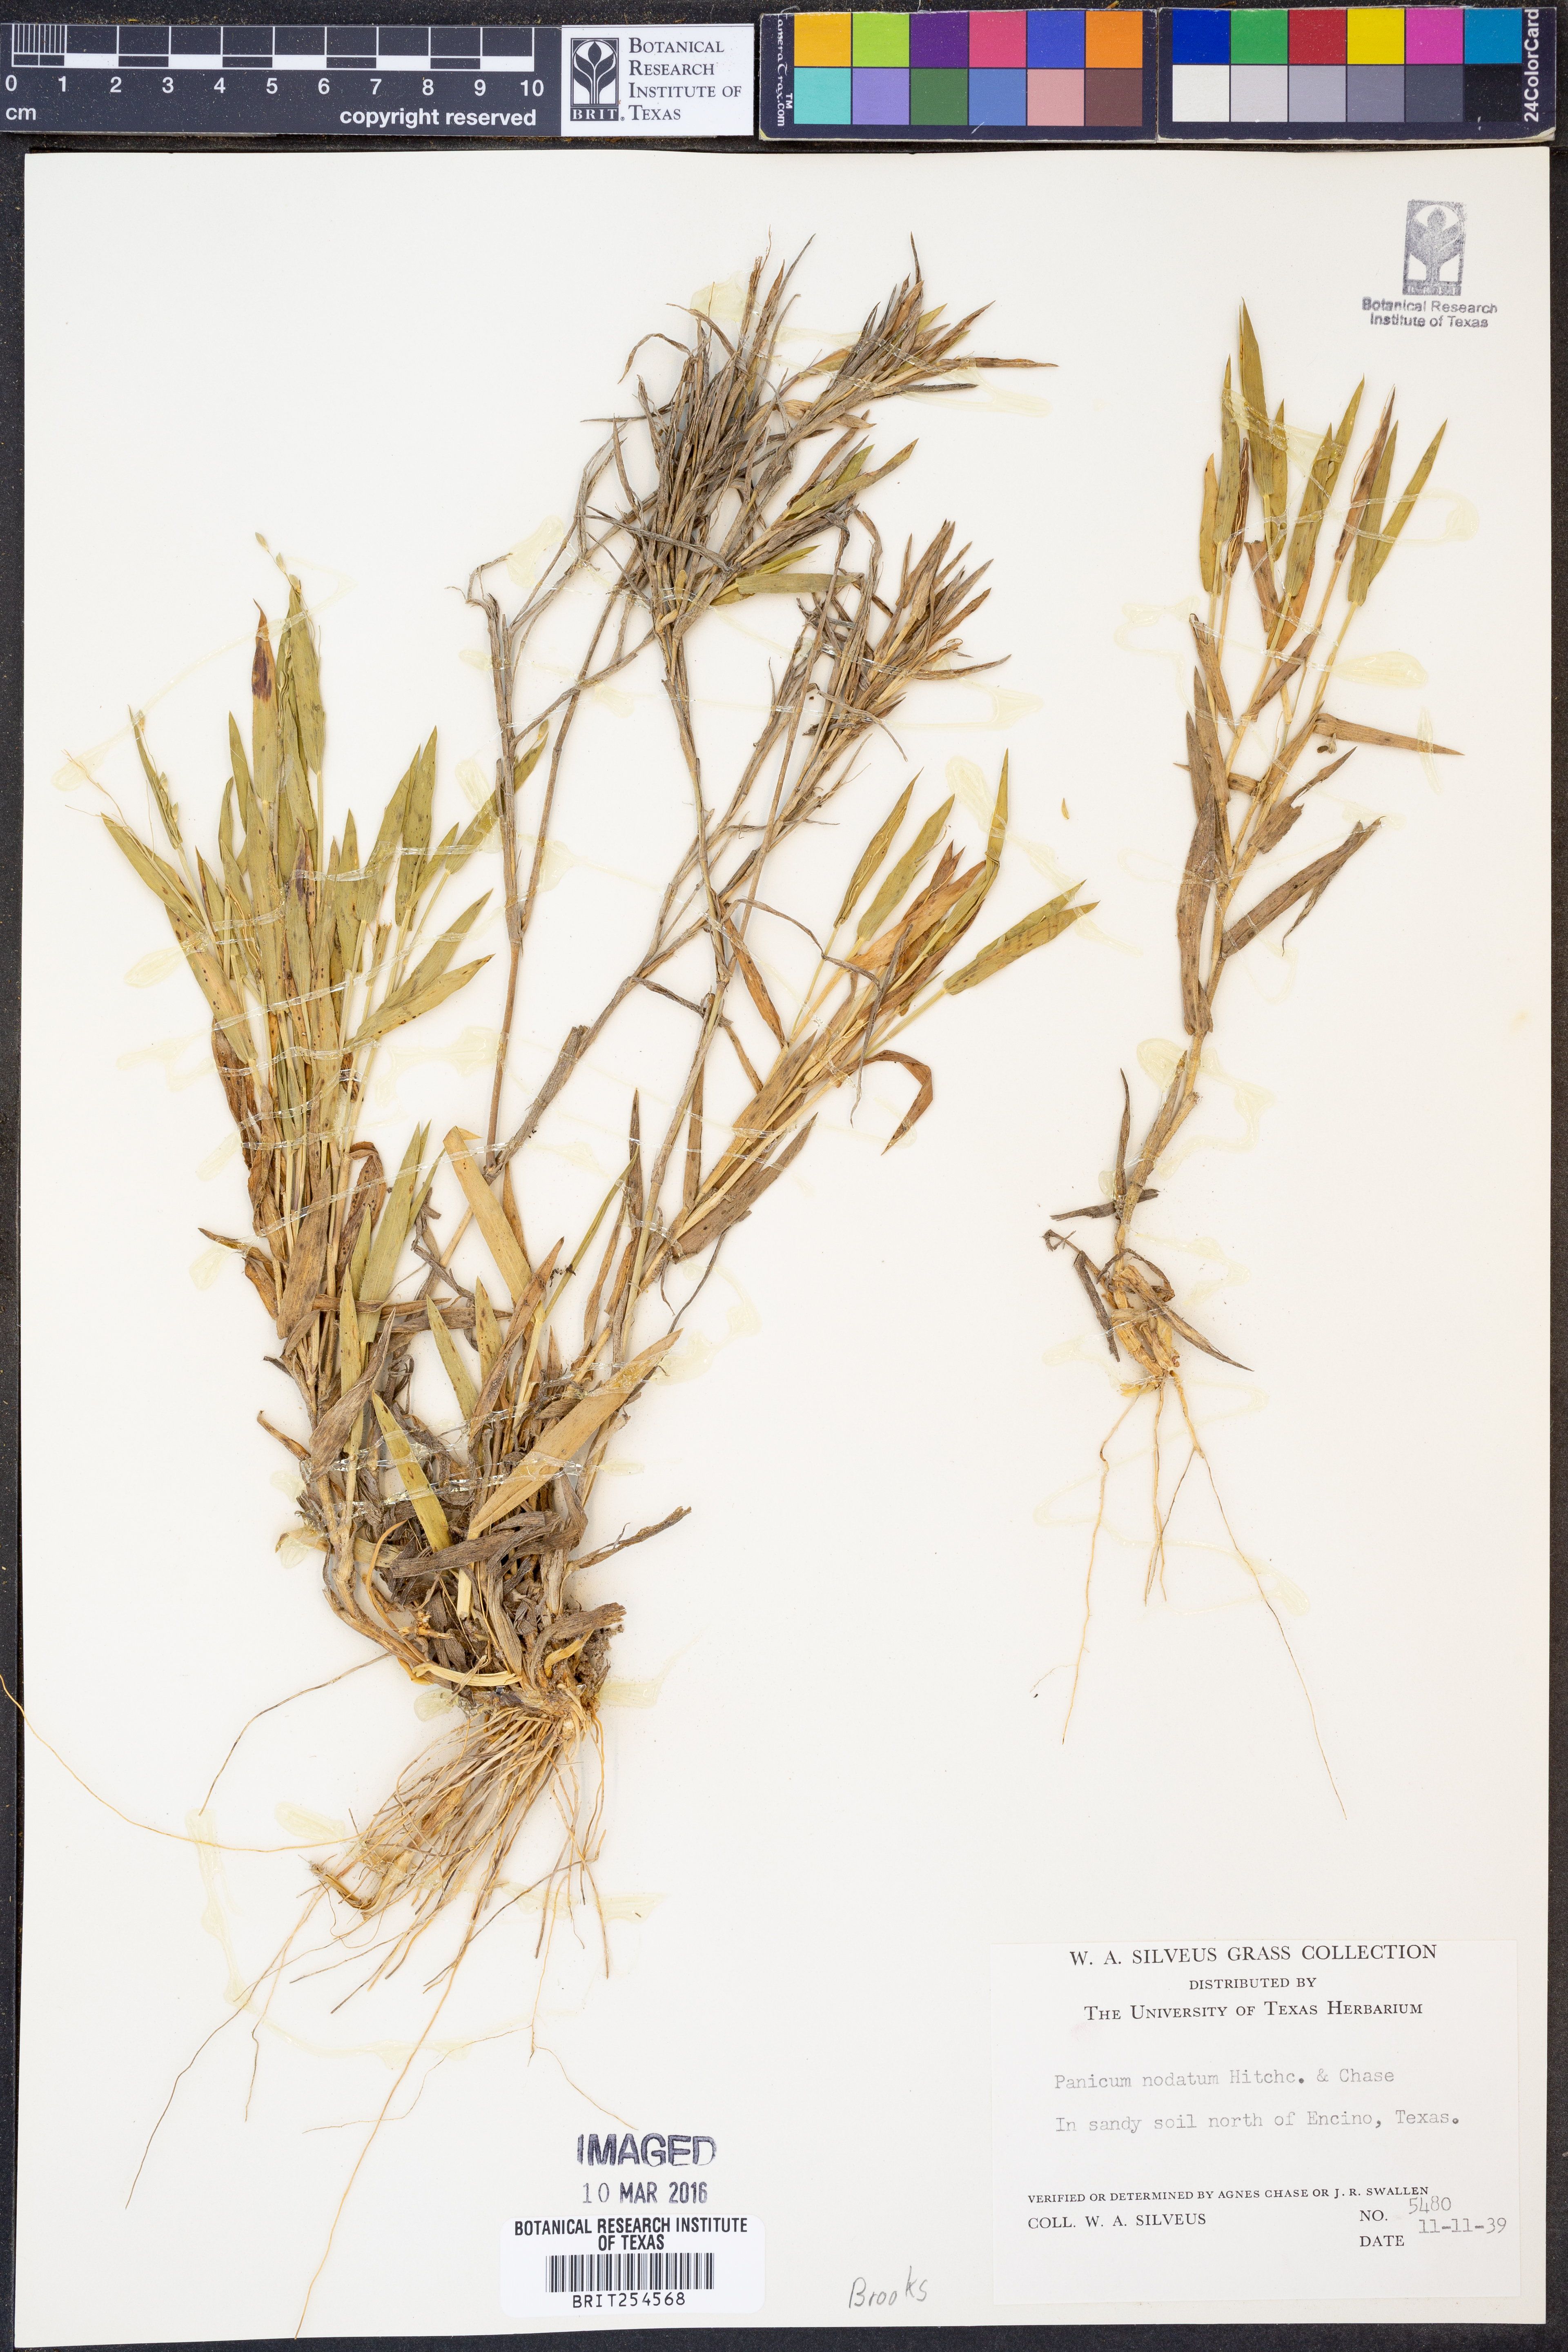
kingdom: Plantae
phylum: Tracheophyta
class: Liliopsida
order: Poales
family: Poaceae
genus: Dichanthelium
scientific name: Dichanthelium nodatum
